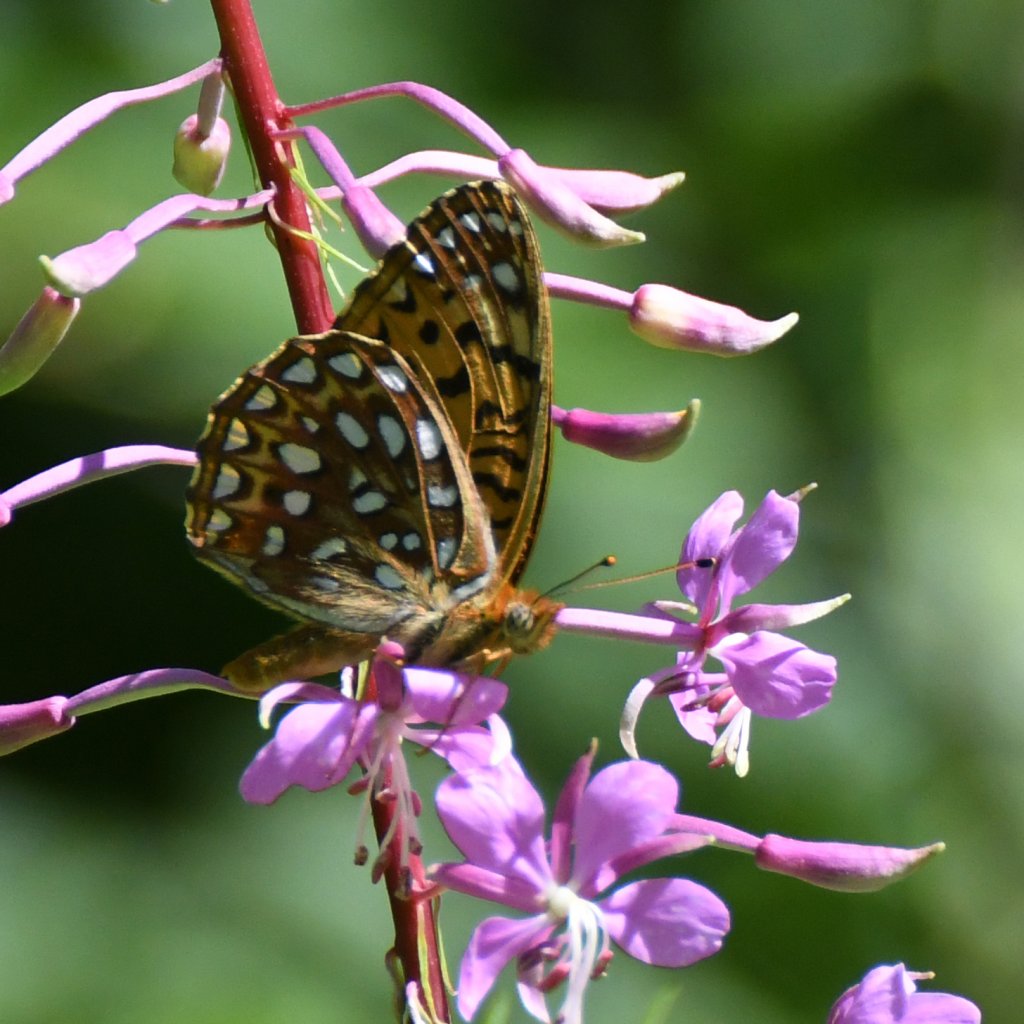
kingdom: Animalia
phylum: Arthropoda
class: Insecta
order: Lepidoptera
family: Nymphalidae
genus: Speyeria
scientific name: Speyeria atlantis
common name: Atlantis Fritillary
